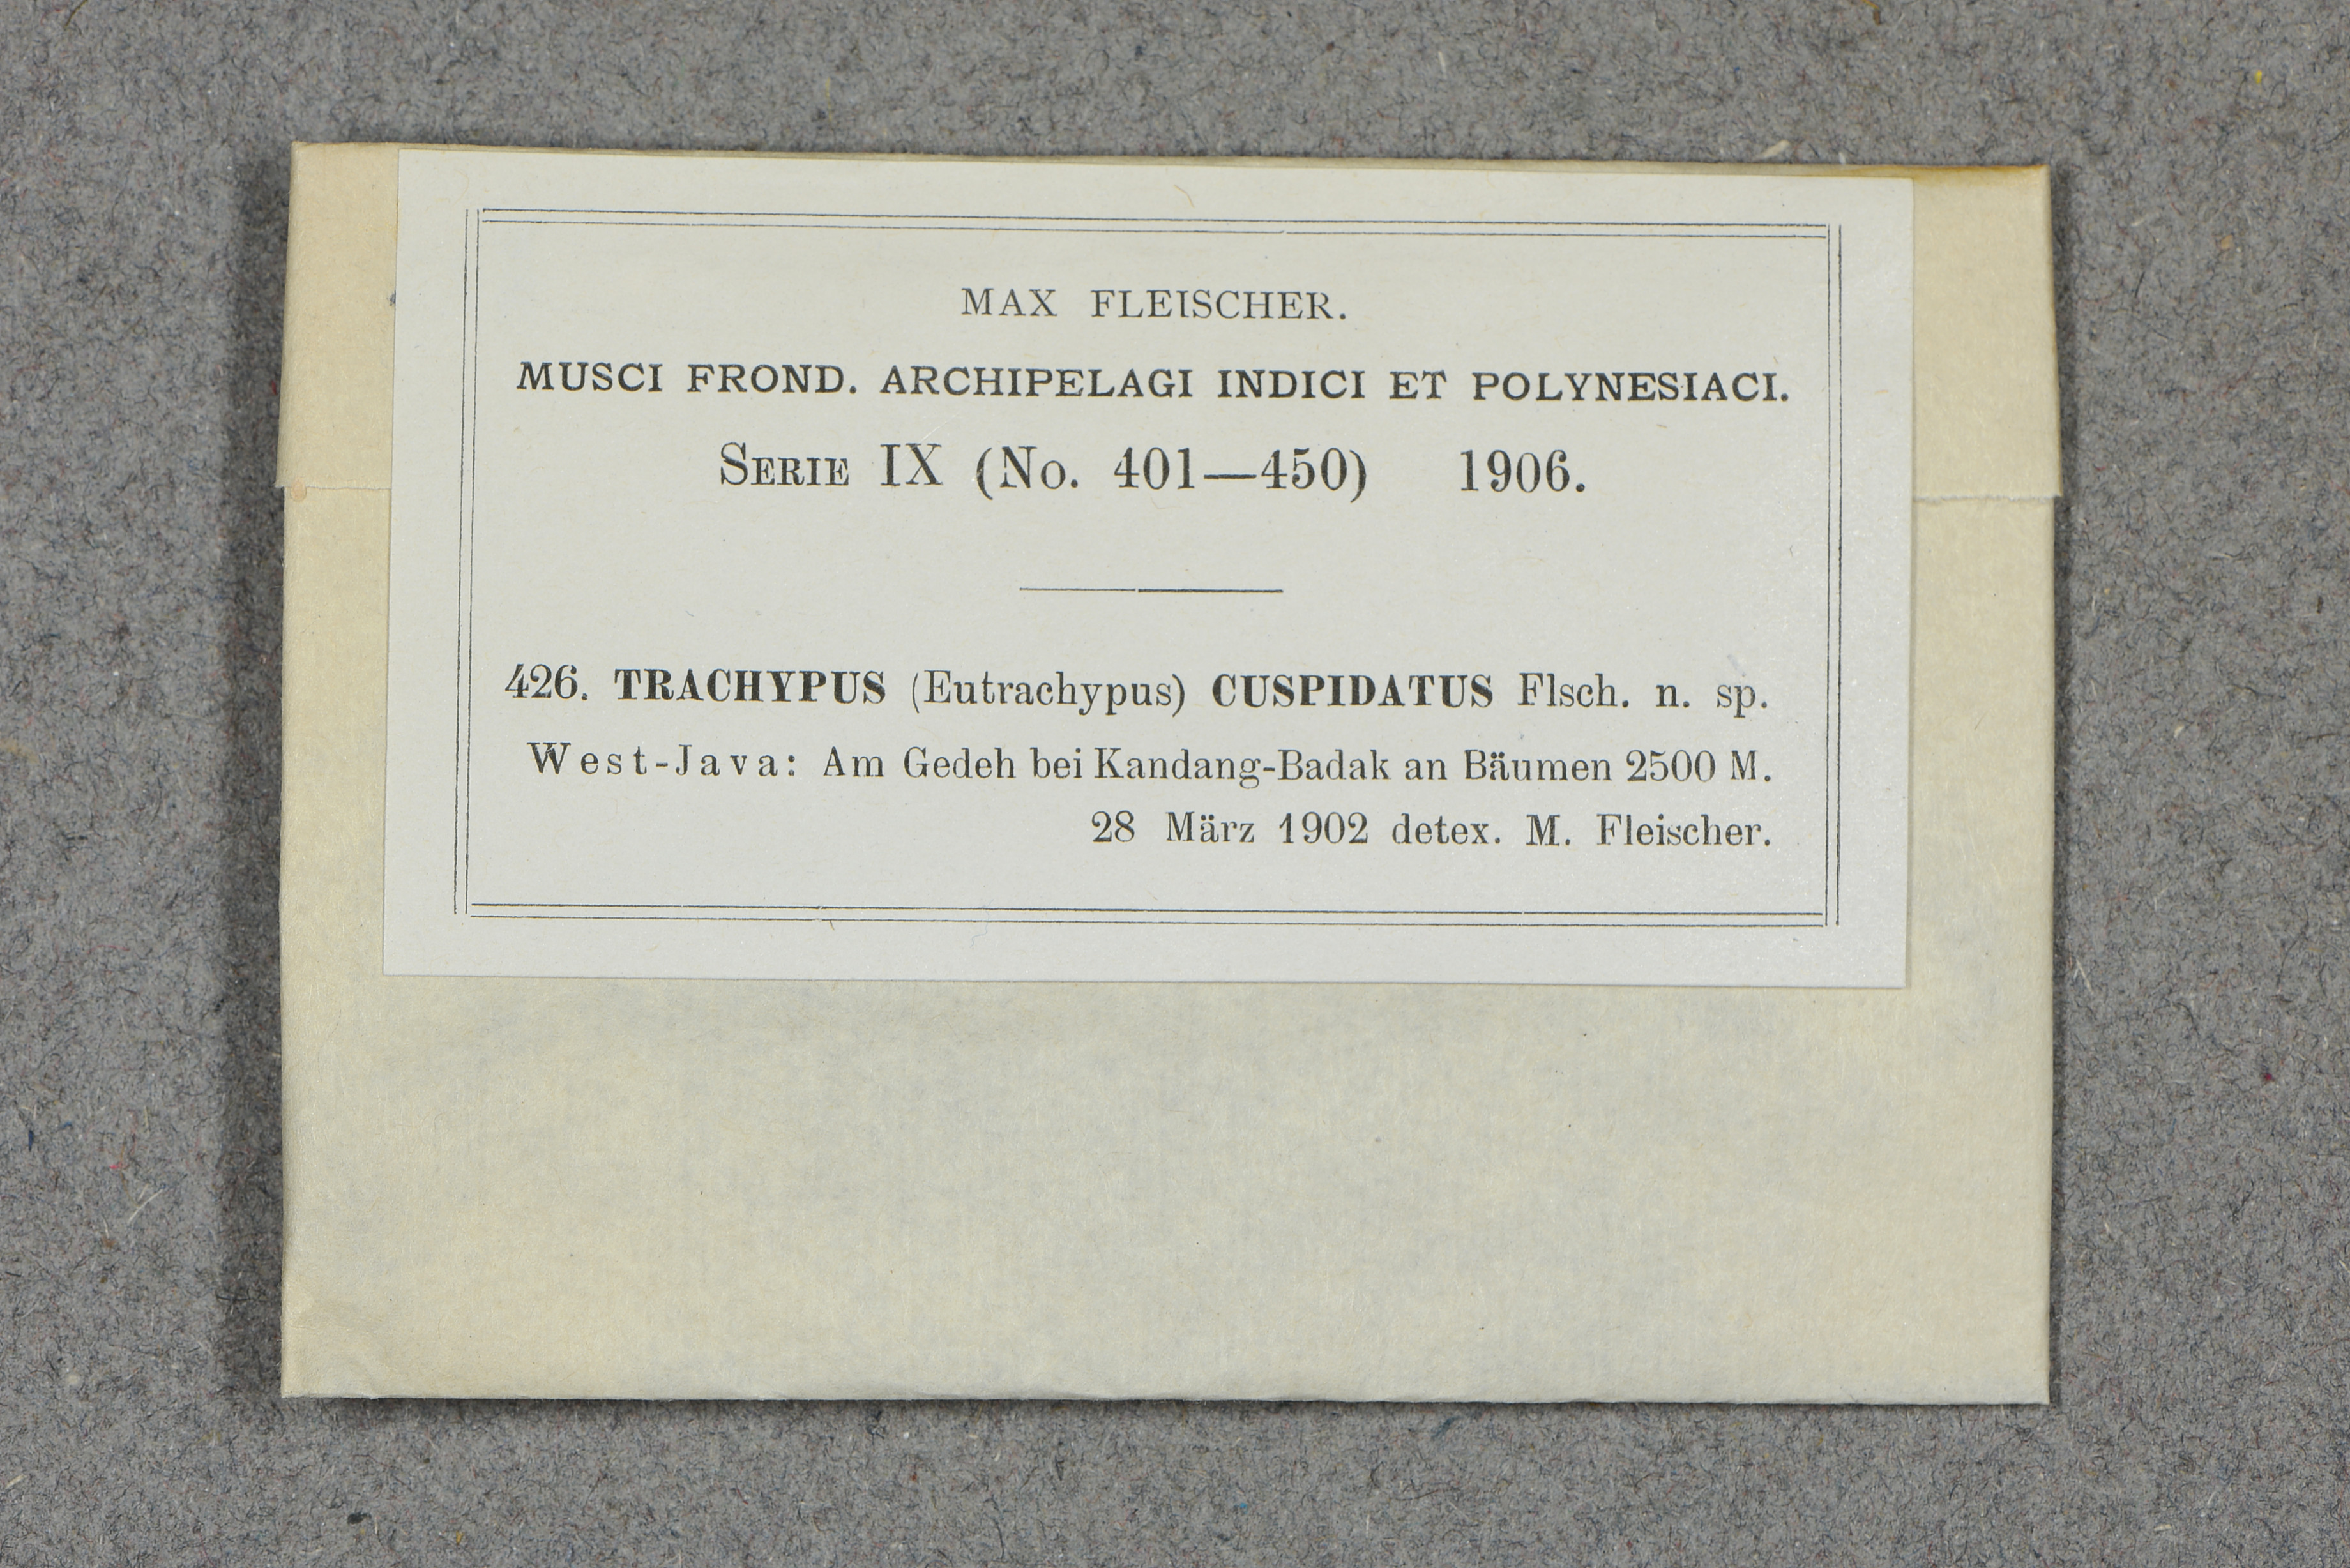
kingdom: Plantae
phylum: Bryophyta
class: Bryopsida
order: Hypnales
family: Meteoriaceae
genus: Trachypus
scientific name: Trachypus bicolor
